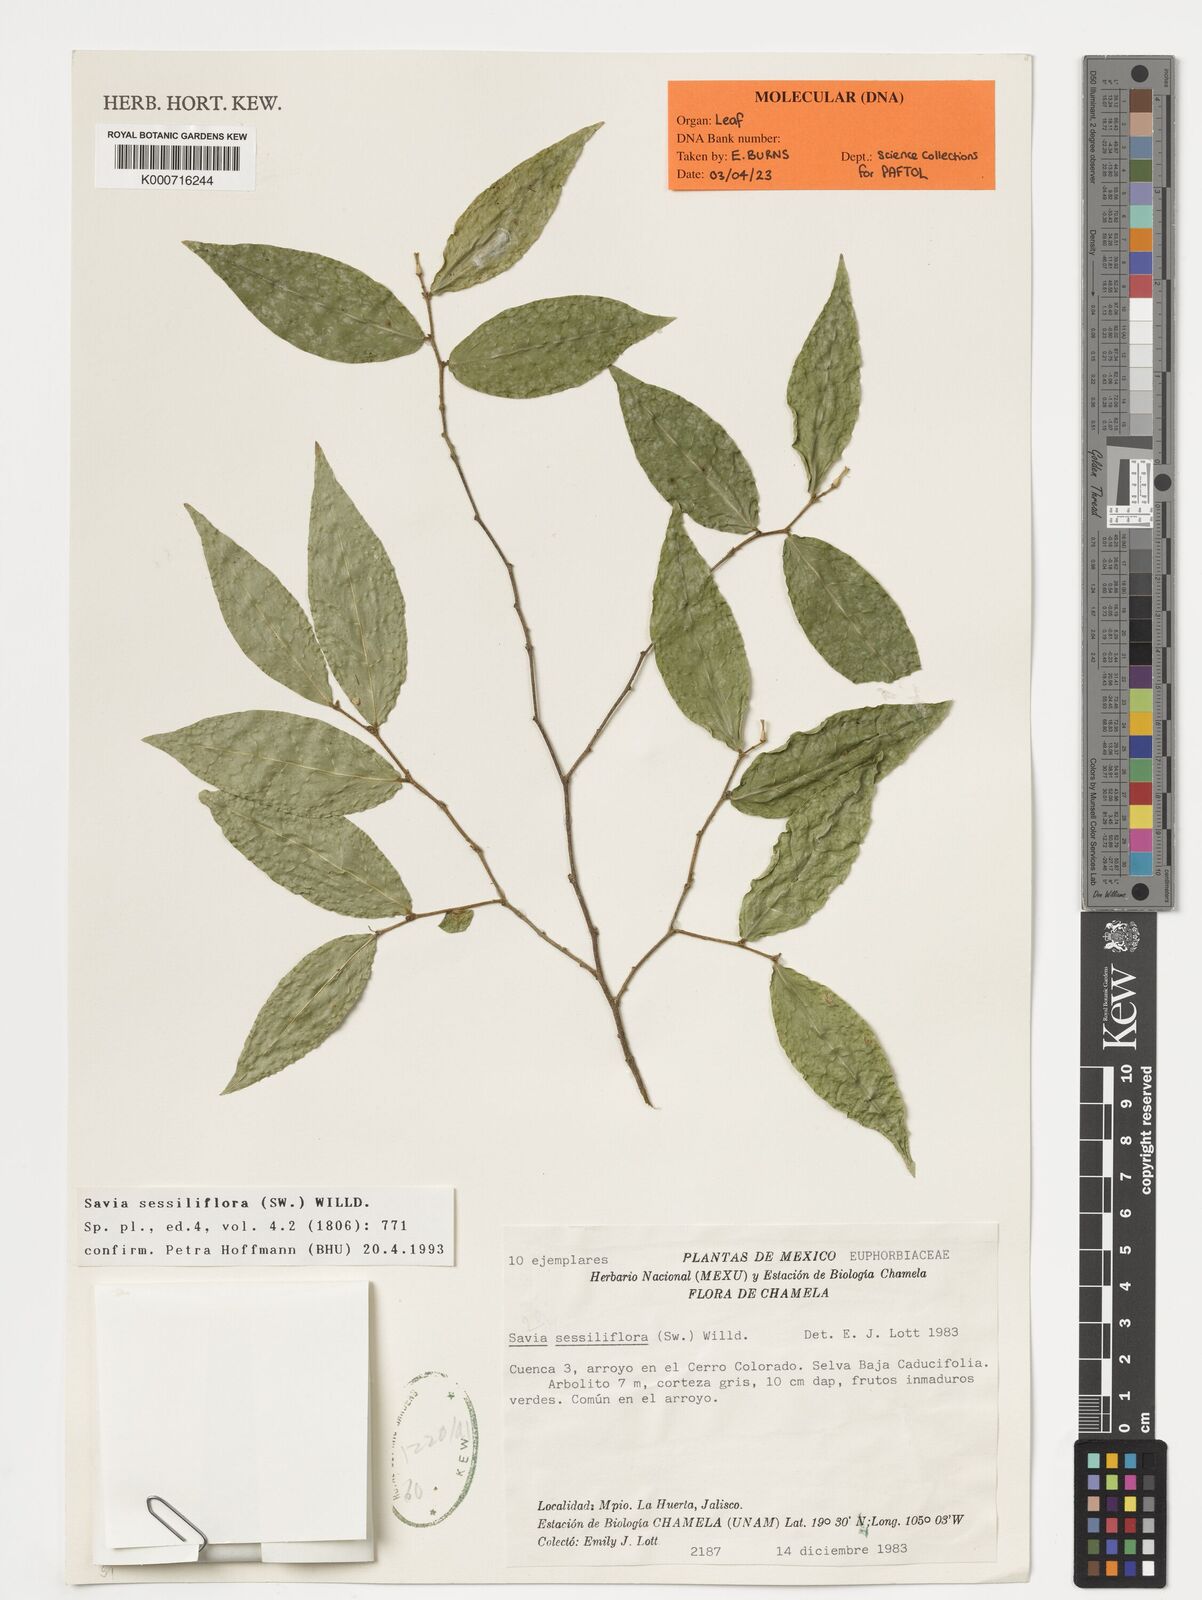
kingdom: Plantae
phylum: Tracheophyta
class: Magnoliopsida
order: Malpighiales
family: Phyllanthaceae
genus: Savia
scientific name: Savia sessiliflora
